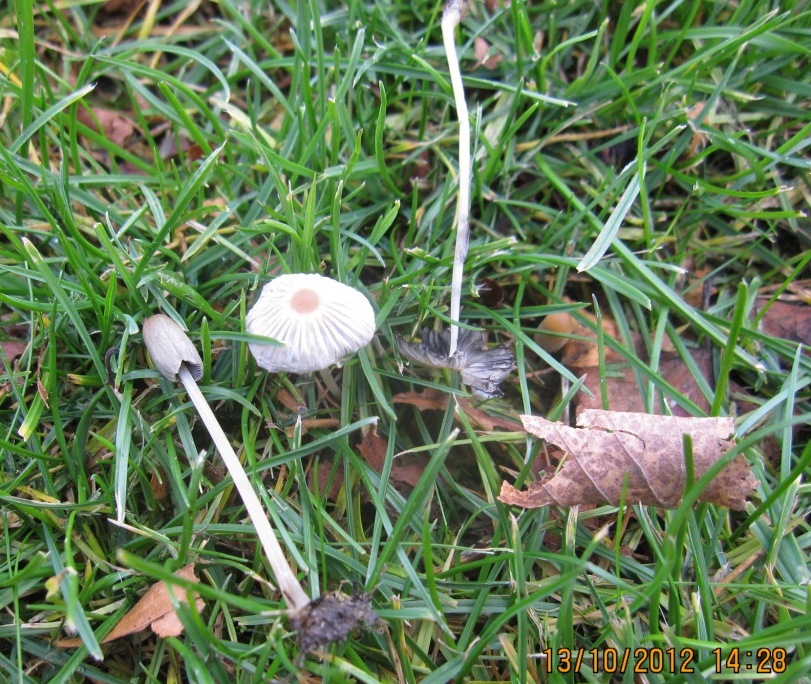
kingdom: Fungi
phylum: Basidiomycota
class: Agaricomycetes
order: Agaricales
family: Psathyrellaceae
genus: Parasola
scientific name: Parasola lactea
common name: glat hjulhat
